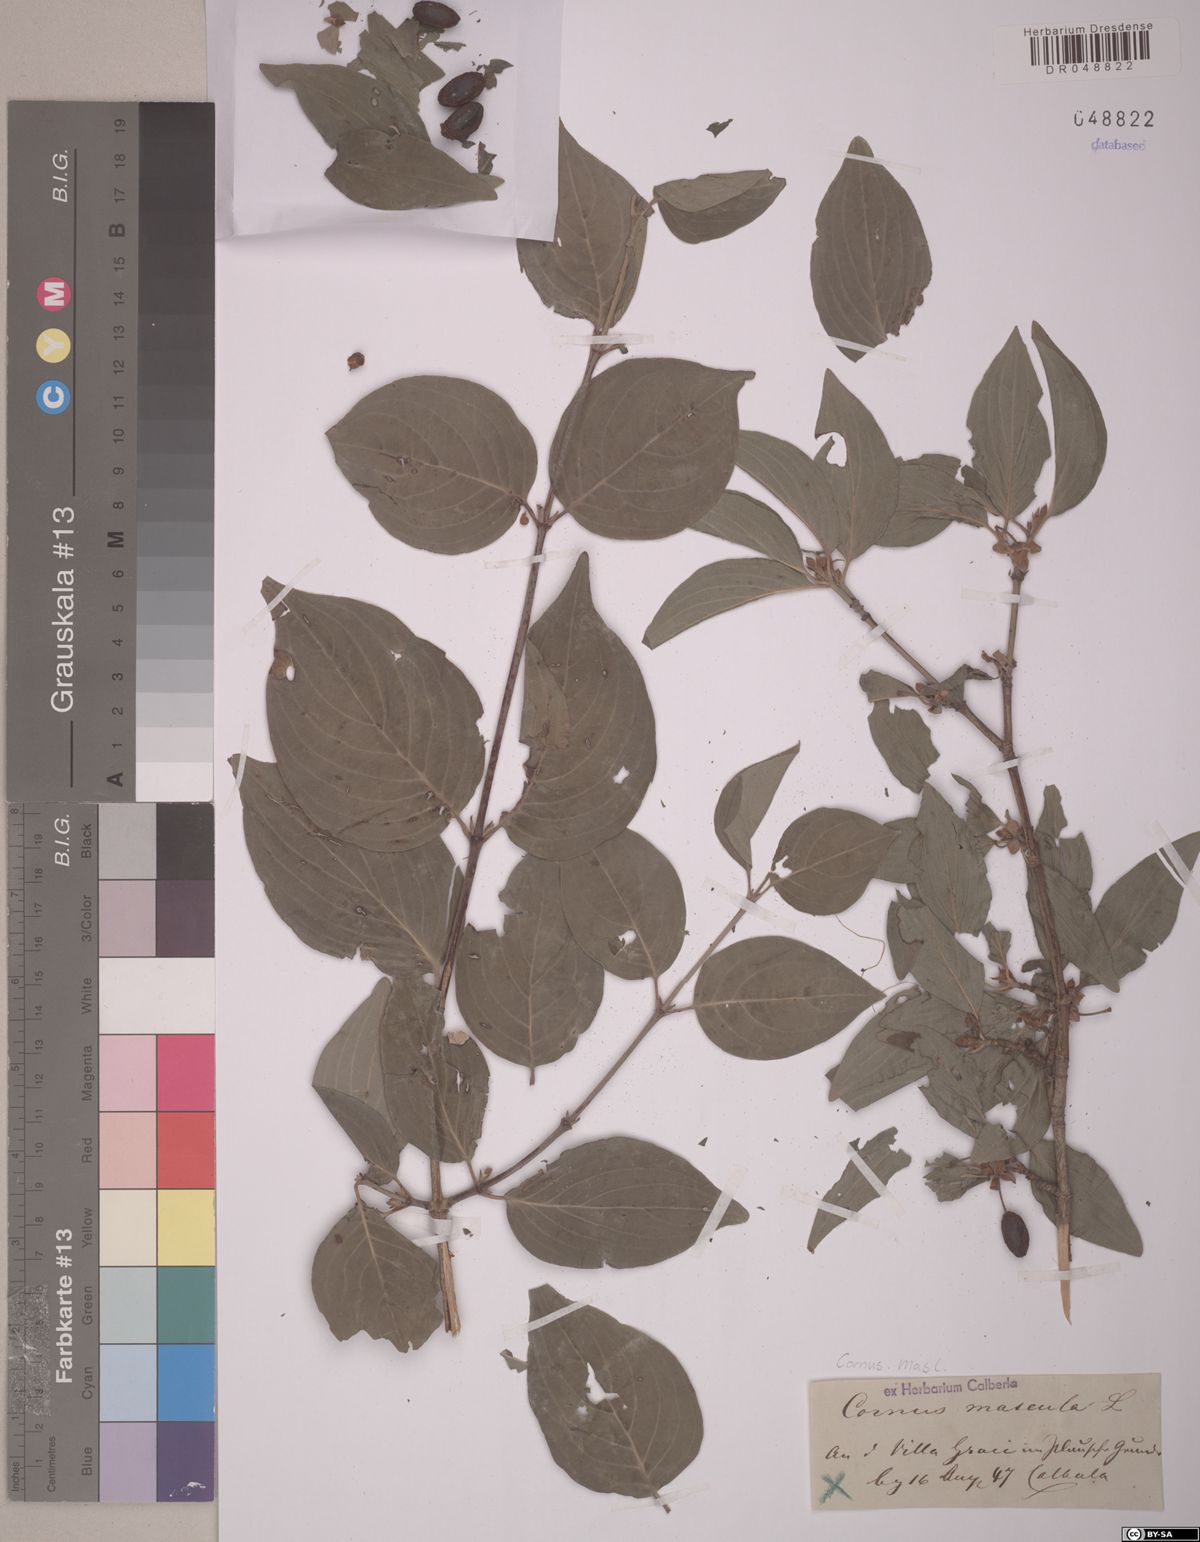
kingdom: Plantae
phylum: Tracheophyta
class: Magnoliopsida
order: Cornales
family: Cornaceae
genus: Cornus
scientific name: Cornus mas
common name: Cornelian-cherry
